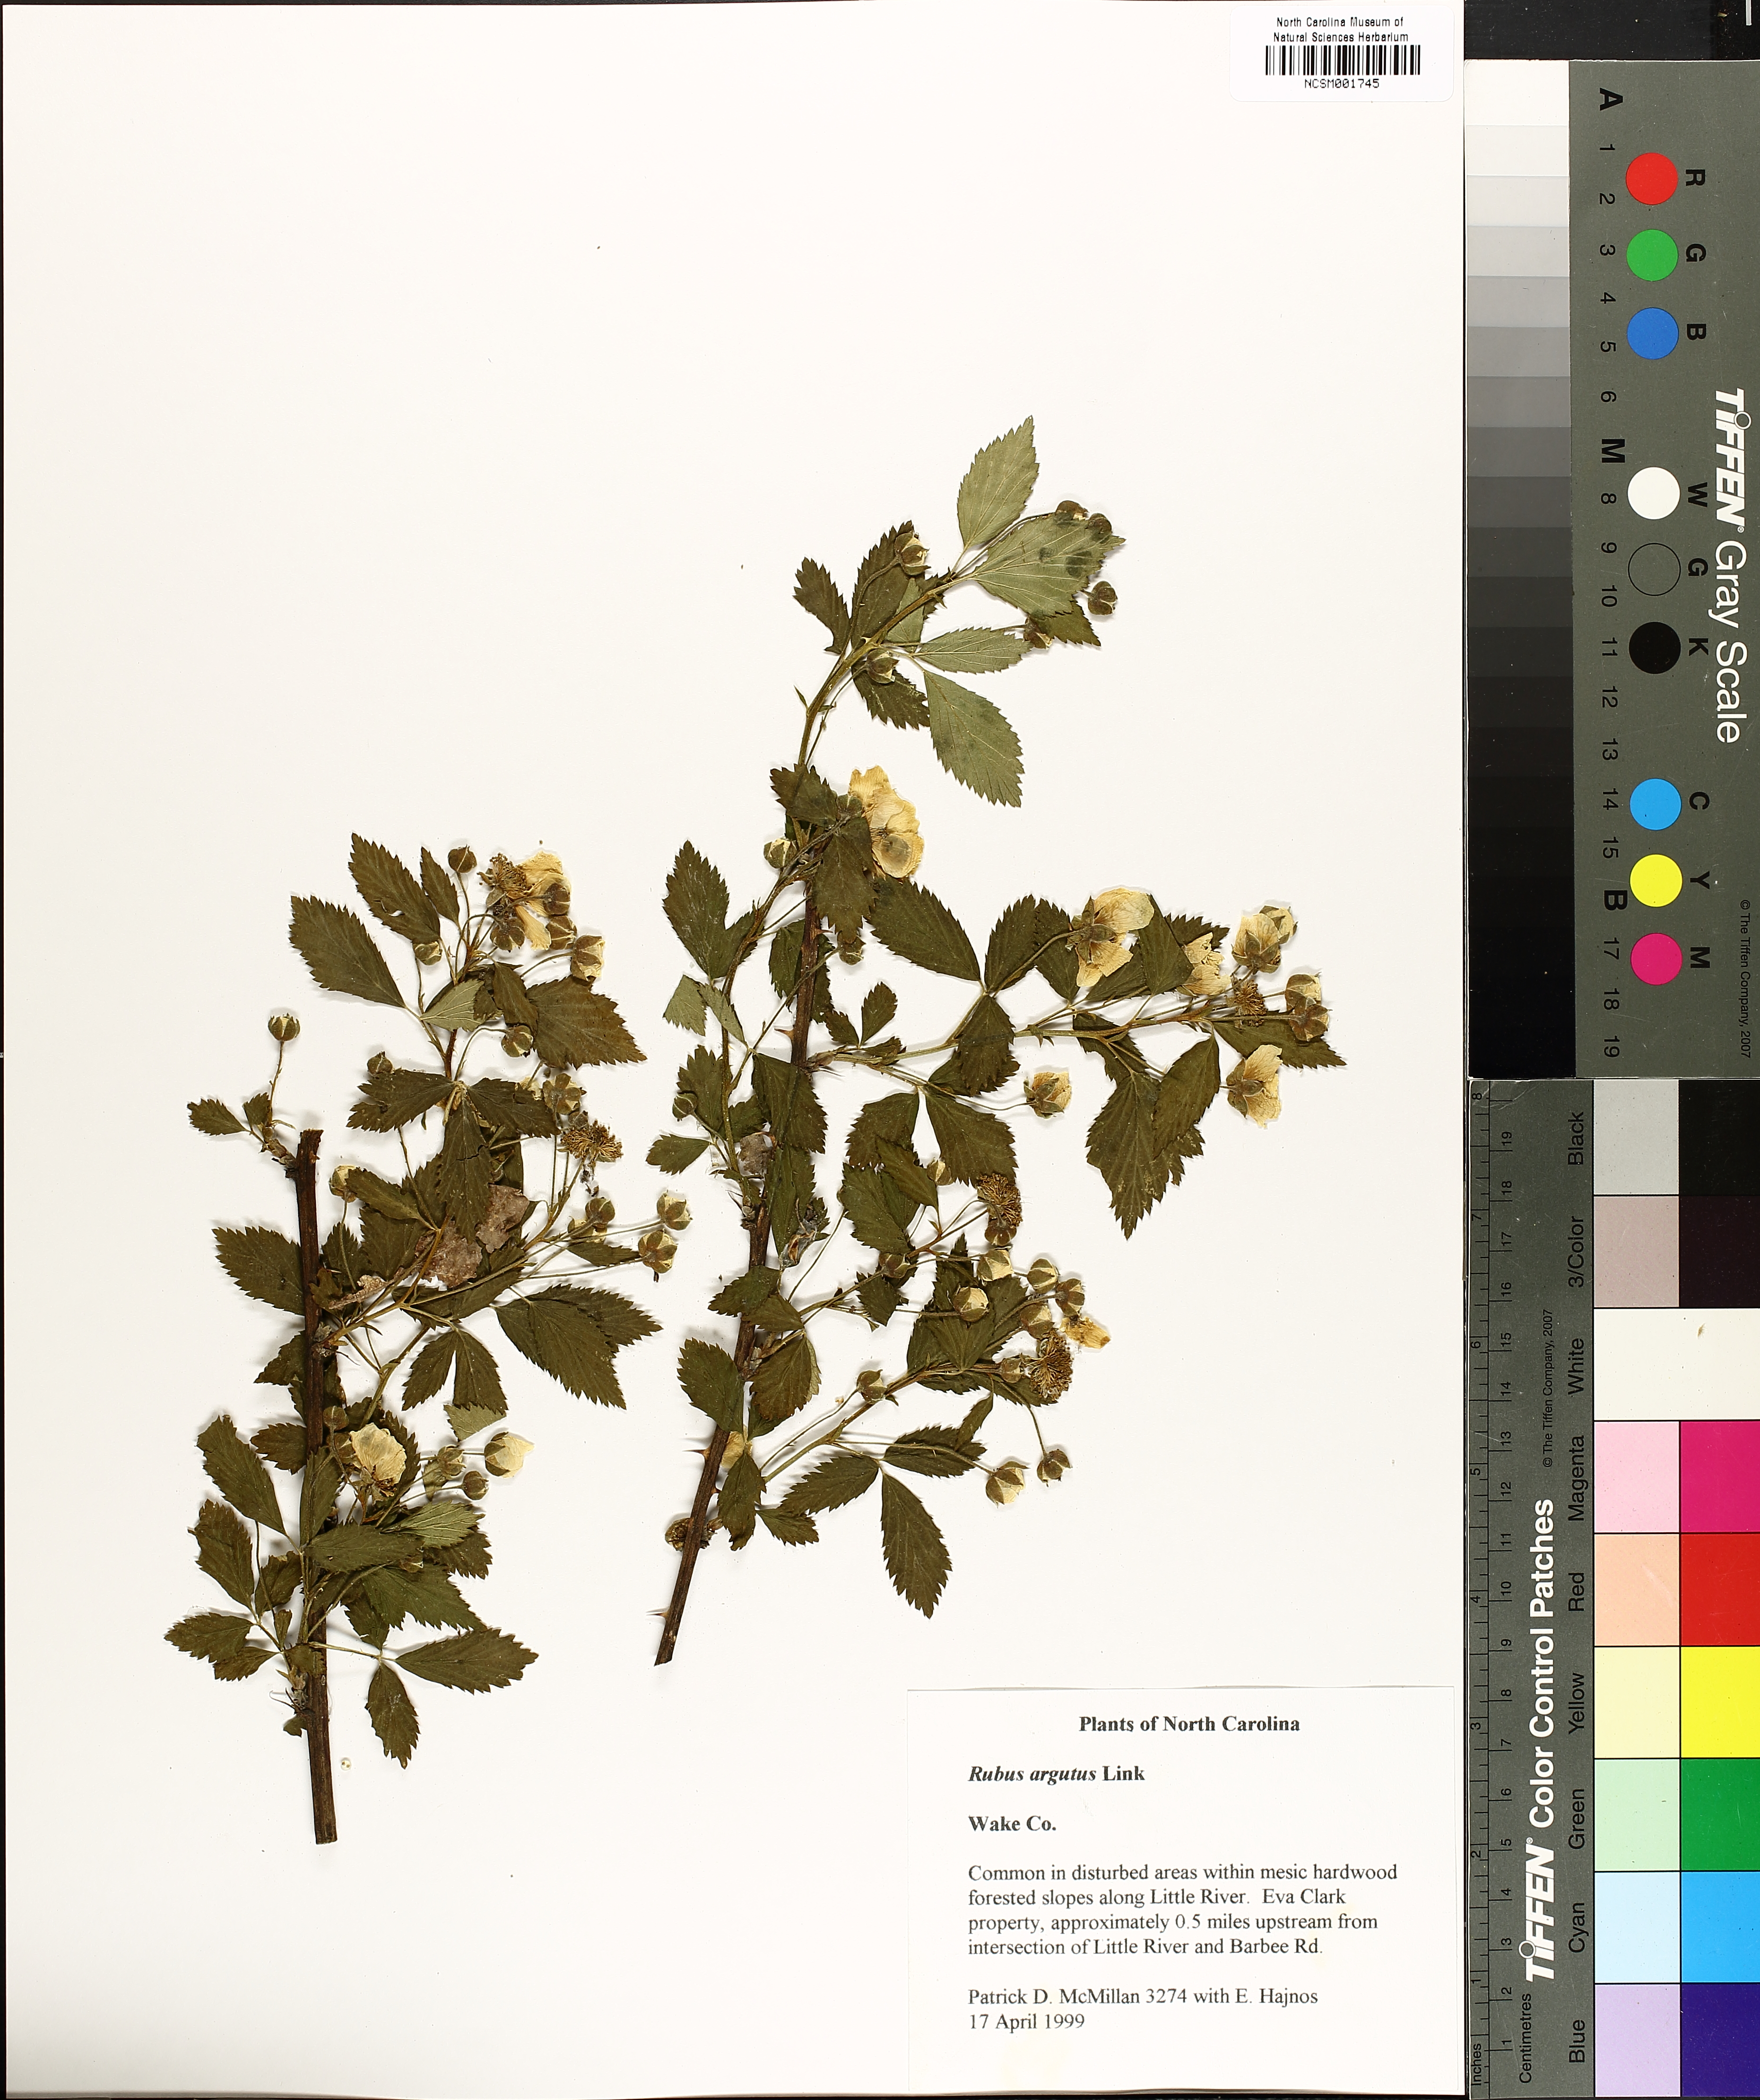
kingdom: Plantae
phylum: Tracheophyta
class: Magnoliopsida
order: Rosales
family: Rosaceae
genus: Rubus
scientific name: Rubus argutus
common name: Sawtooth blackberry
